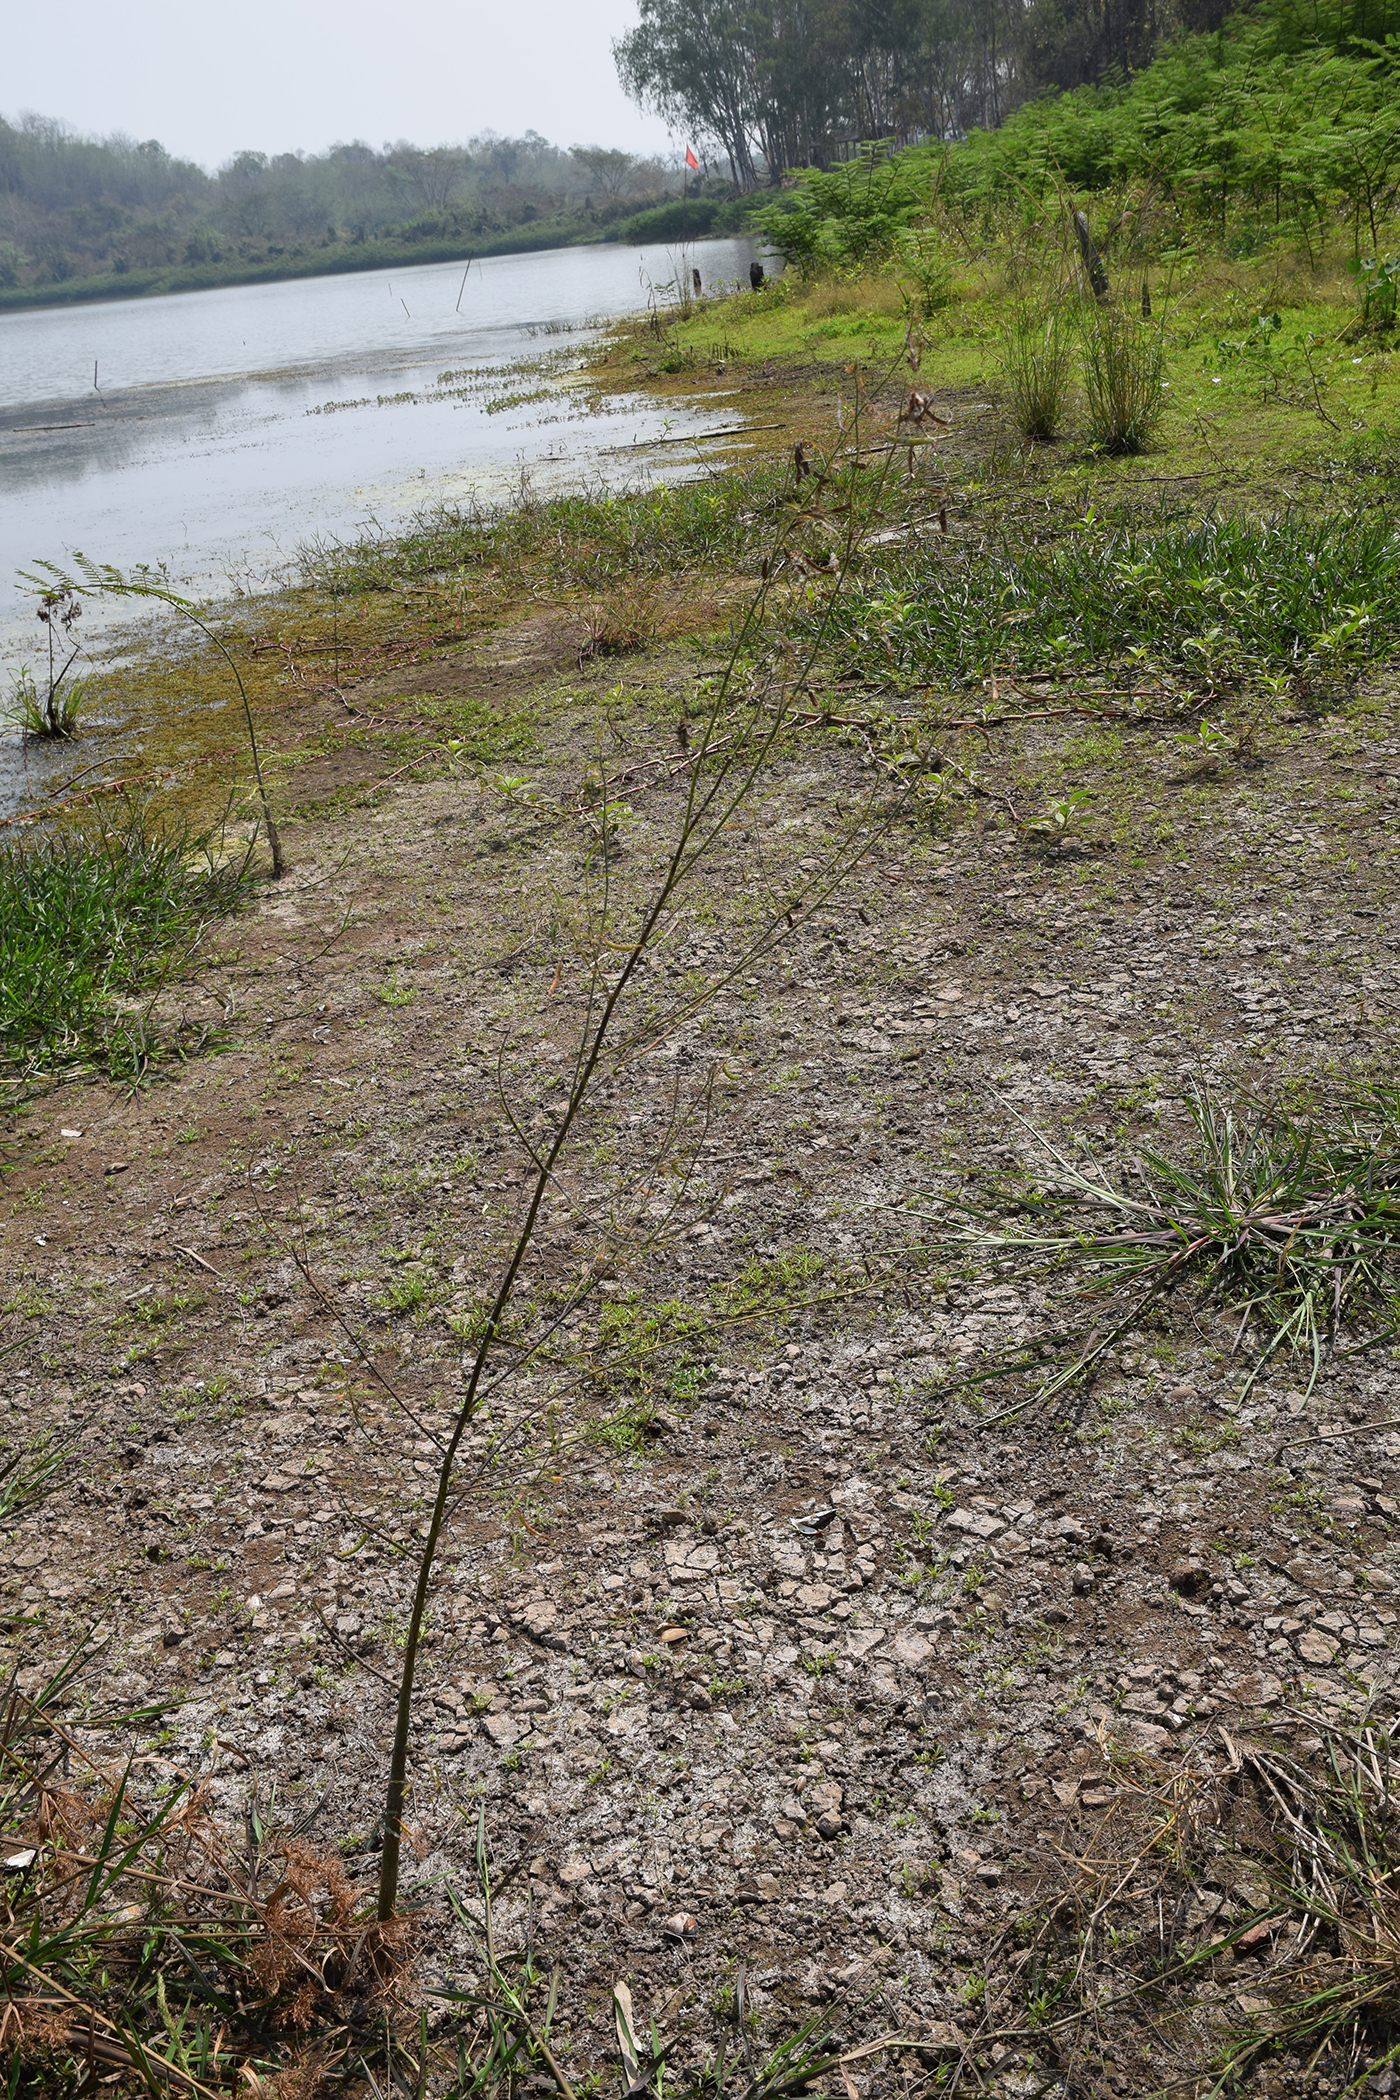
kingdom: Plantae
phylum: Tracheophyta
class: Magnoliopsida
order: Fabales
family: Fabaceae
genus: Aeschynomene
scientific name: Aeschynomene indica
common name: Indian jointvetch
